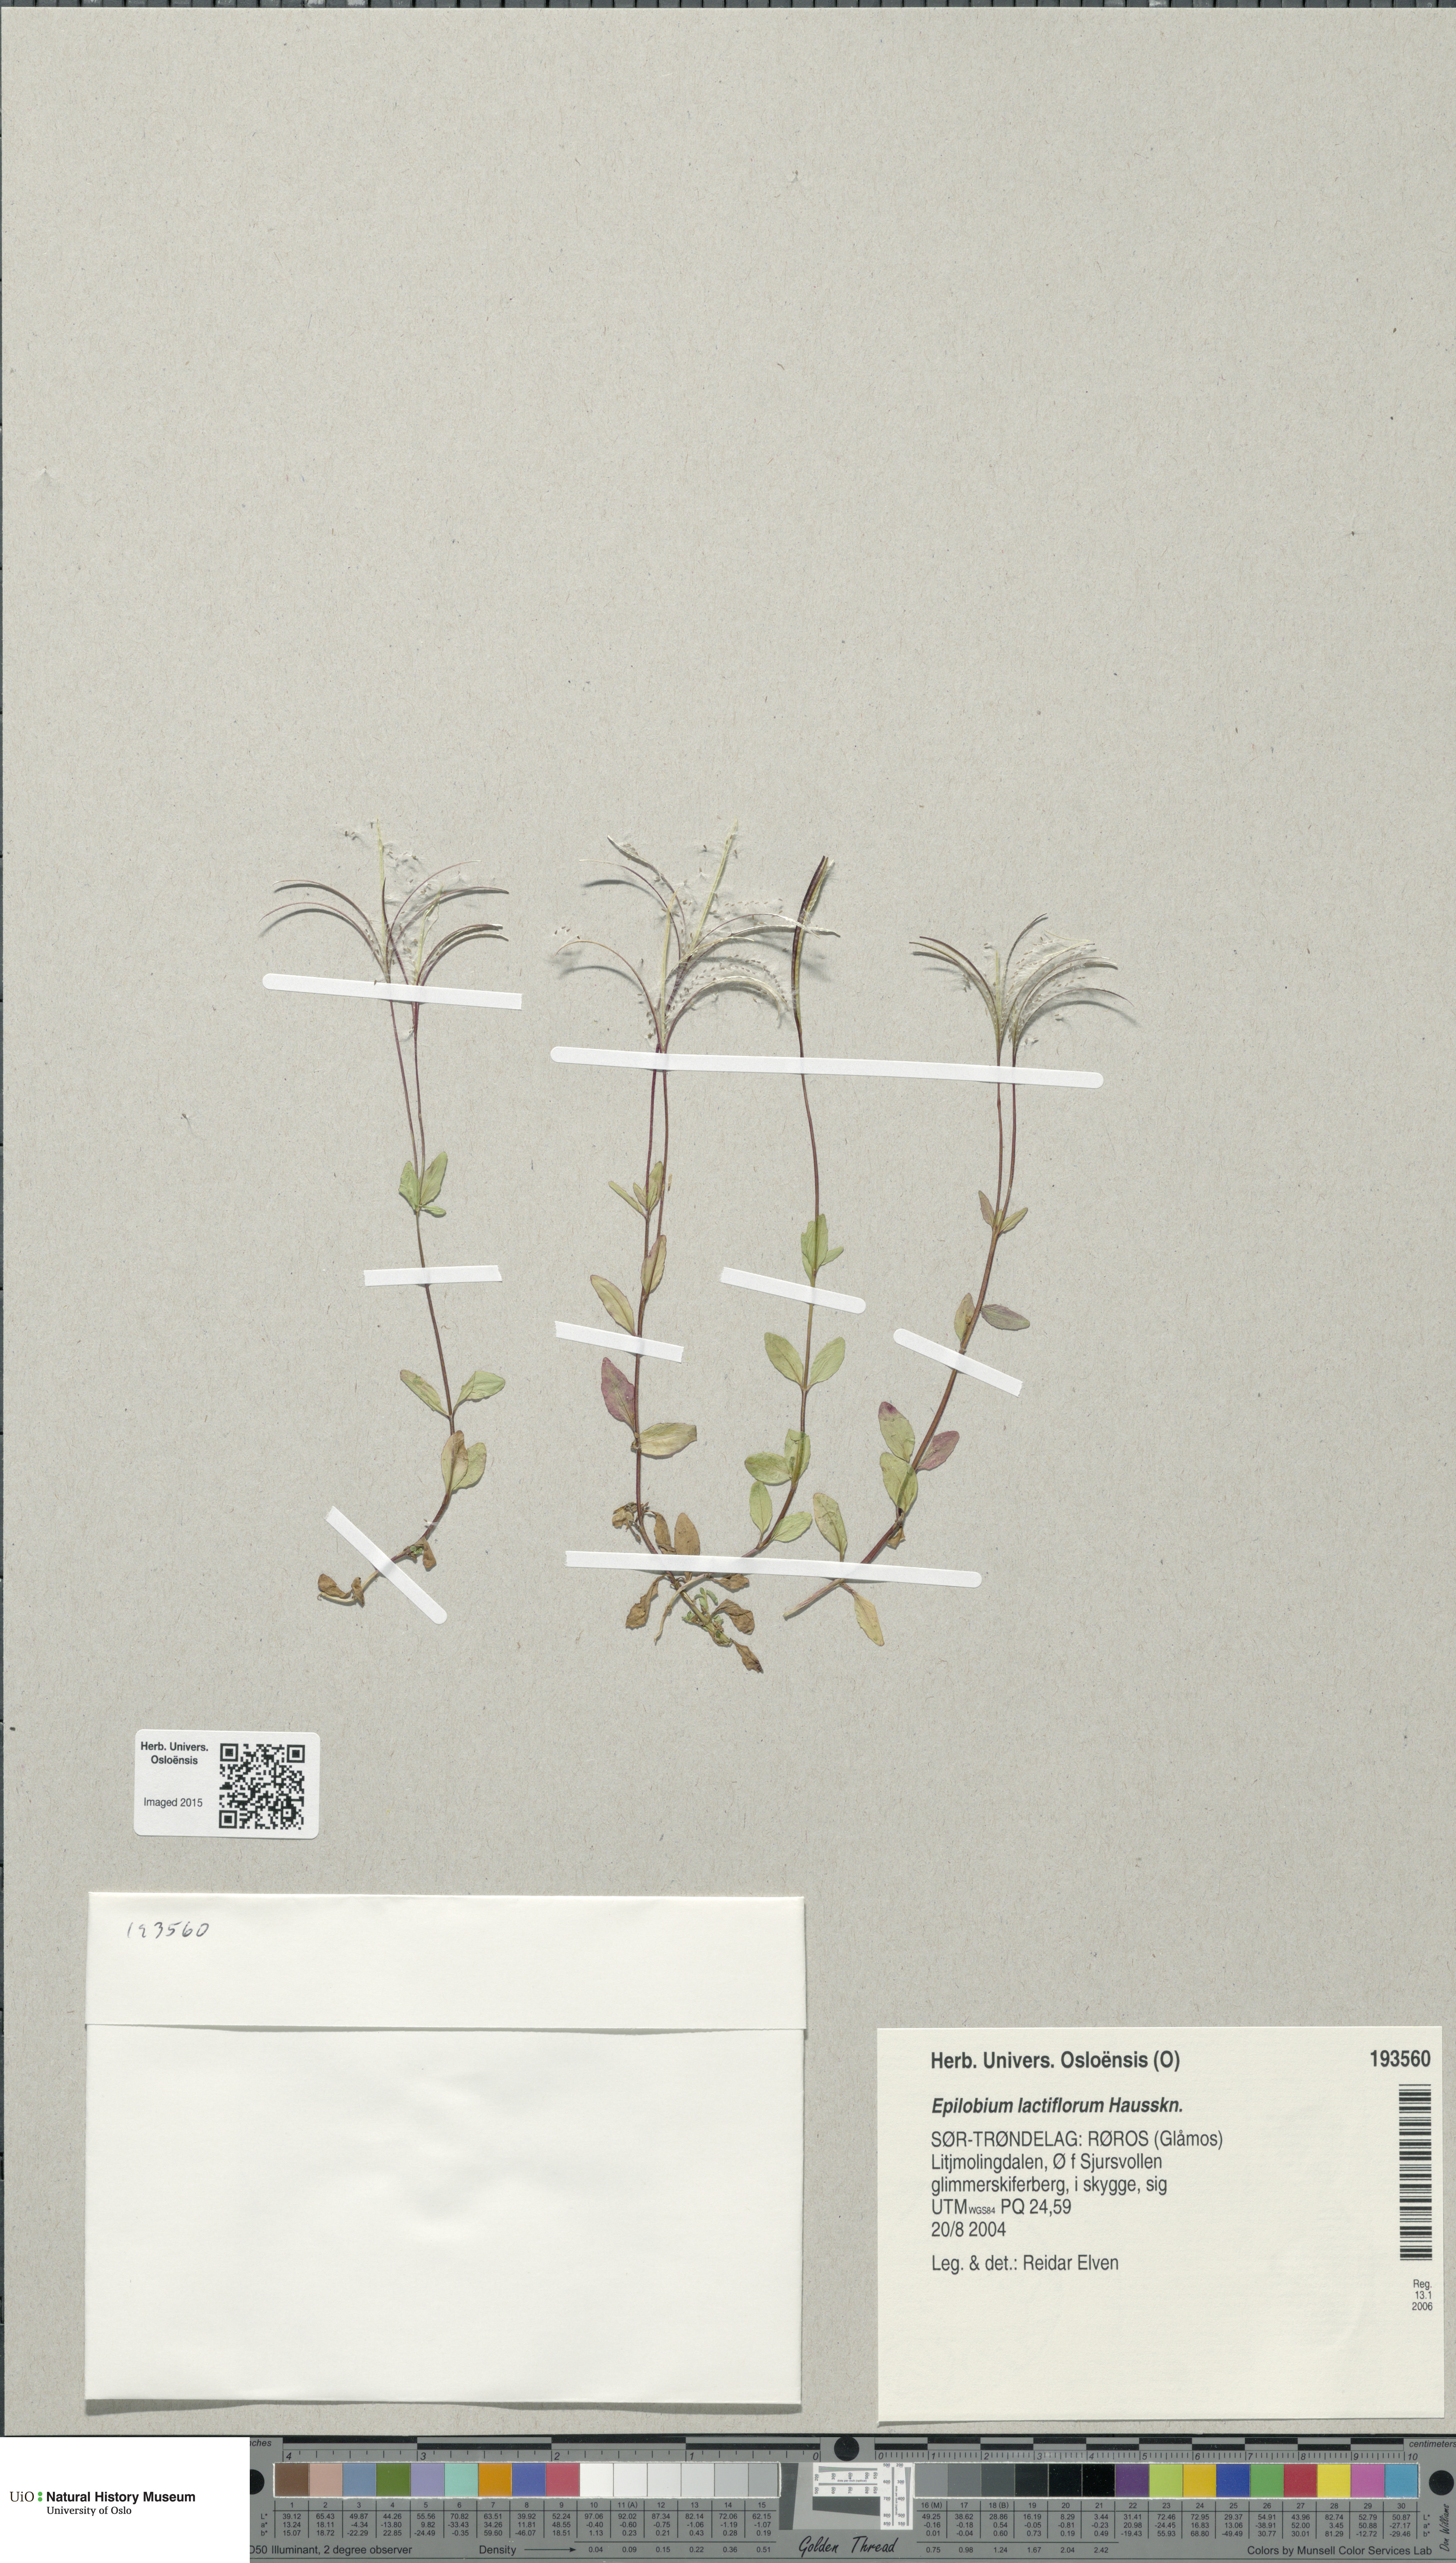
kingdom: Plantae
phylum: Tracheophyta
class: Magnoliopsida
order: Myrtales
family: Onagraceae
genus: Epilobium
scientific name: Epilobium lactiflorum
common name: Milkflower willowherb
